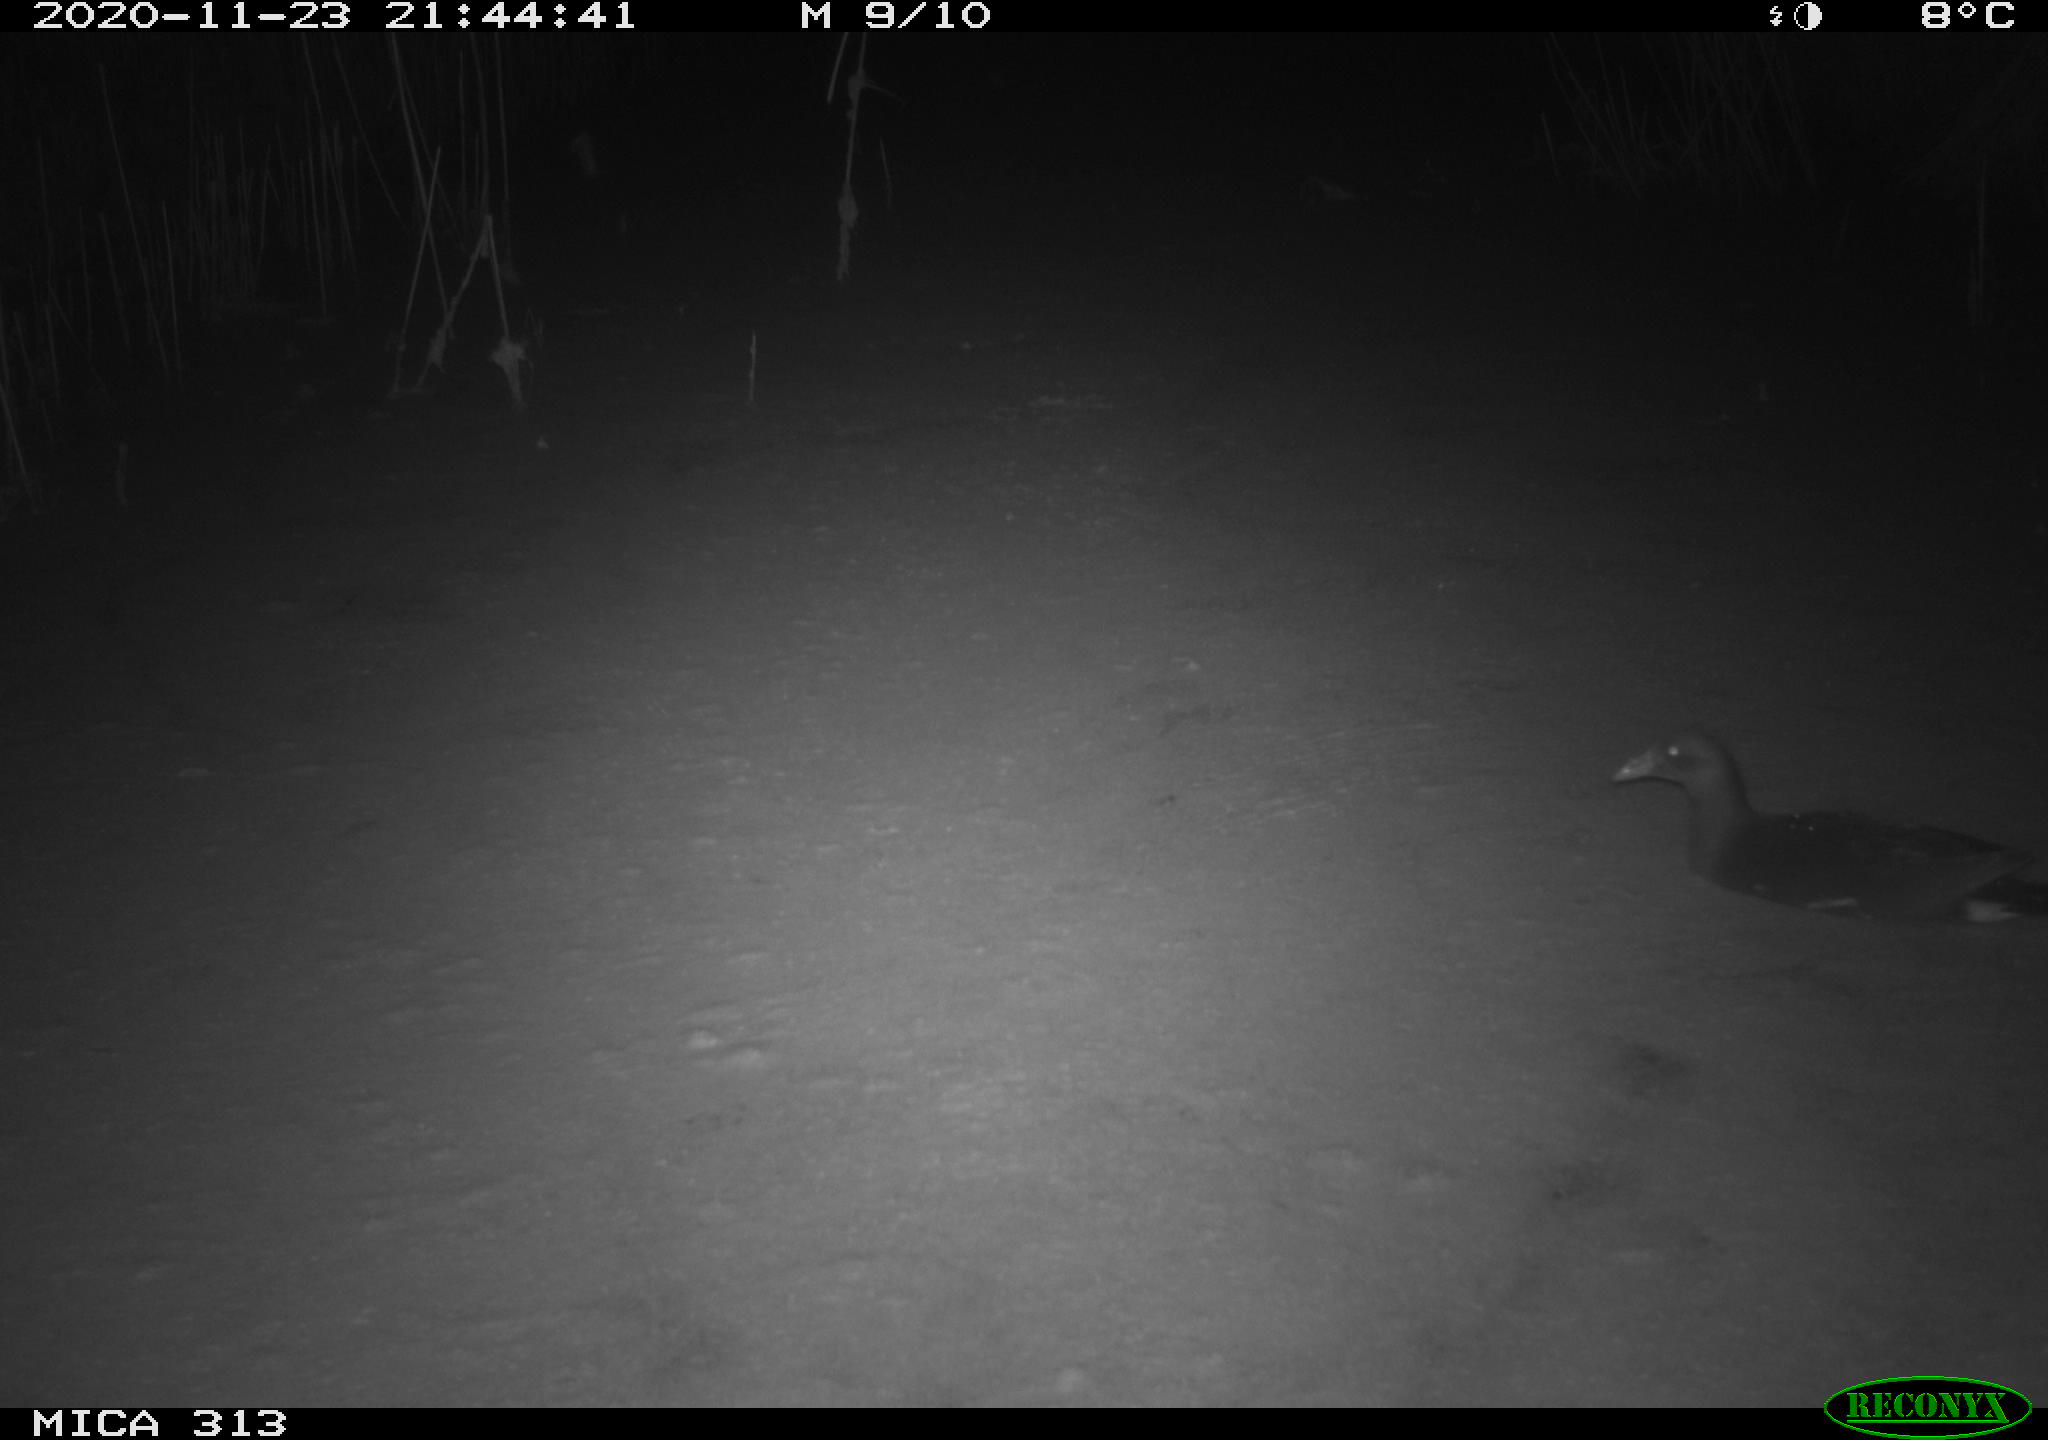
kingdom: Animalia
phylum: Chordata
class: Aves
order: Gruiformes
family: Rallidae
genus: Fulica
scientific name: Fulica atra
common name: Eurasian coot
